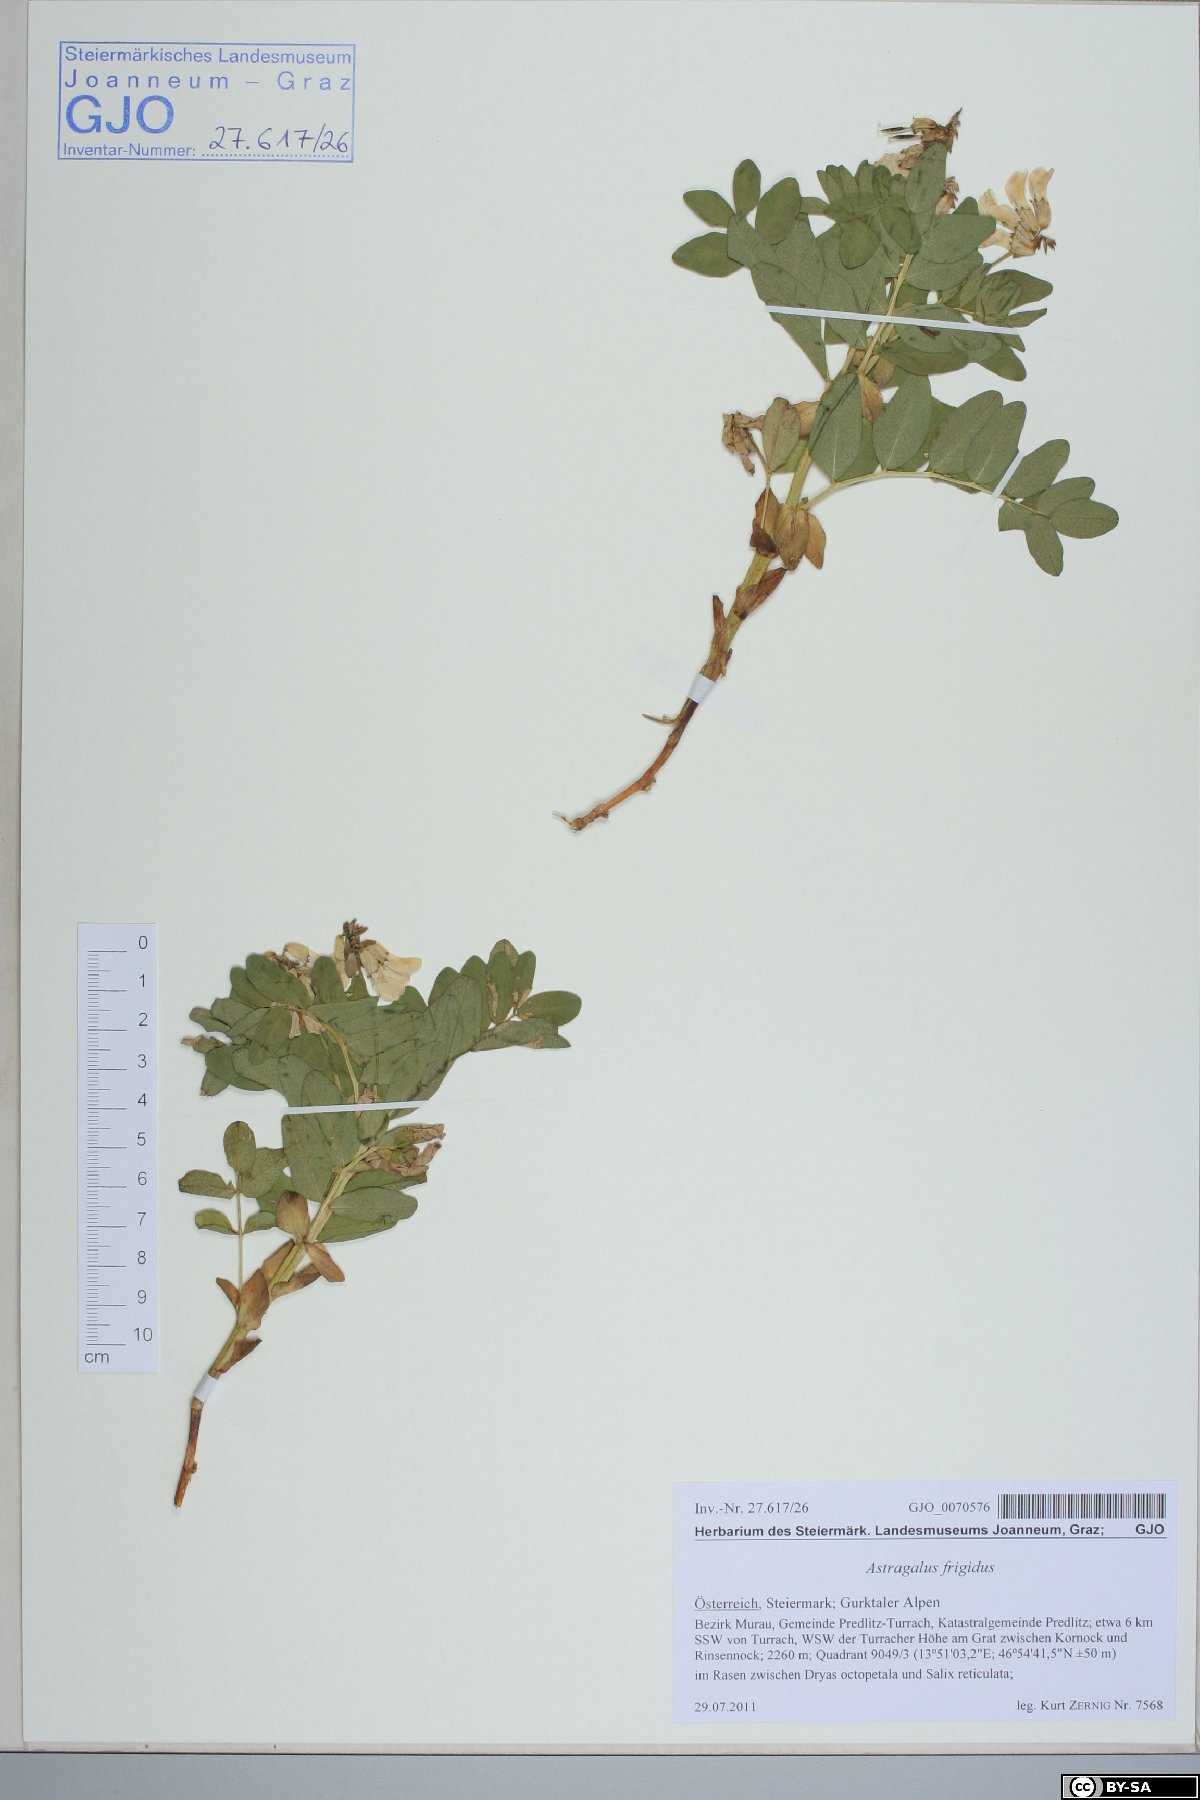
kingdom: Plantae
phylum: Tracheophyta
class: Magnoliopsida
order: Fabales
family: Fabaceae
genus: Astragalus
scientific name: Astragalus frigidus
